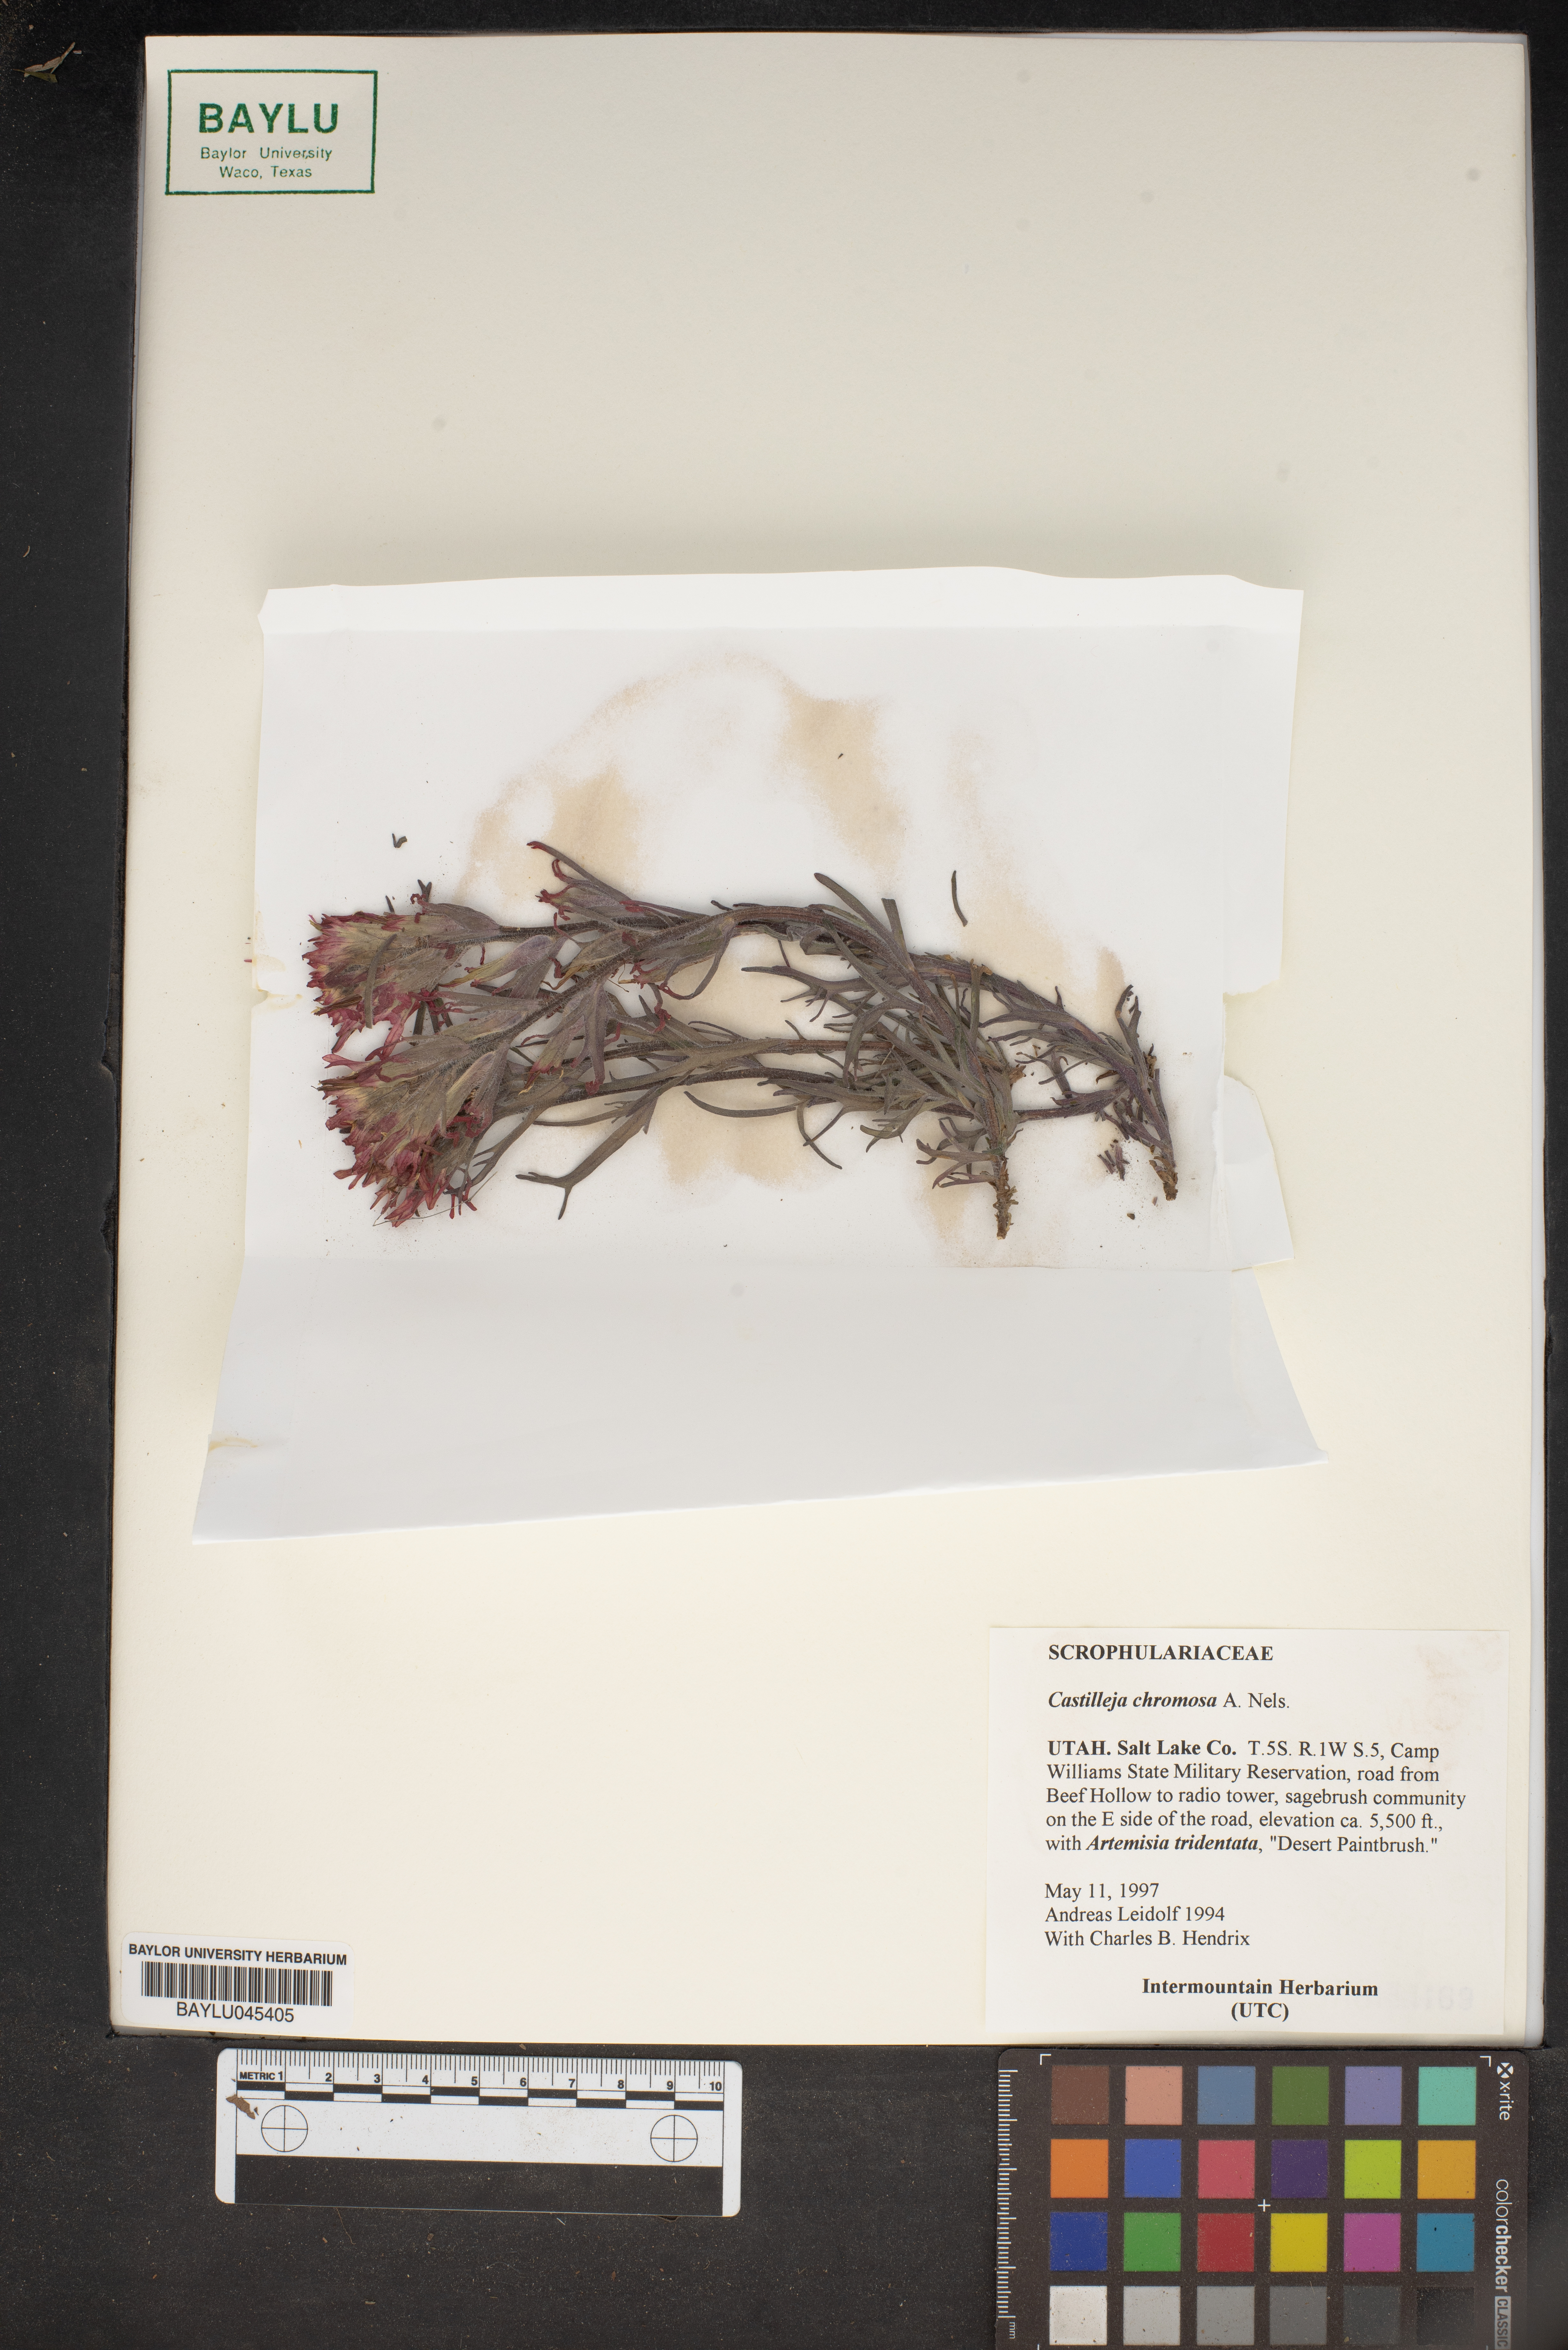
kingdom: Plantae
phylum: Tracheophyta
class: Magnoliopsida
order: Lamiales
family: Orobanchaceae
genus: Castilleja
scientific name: Castilleja chromosa
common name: Desert paintbrush
